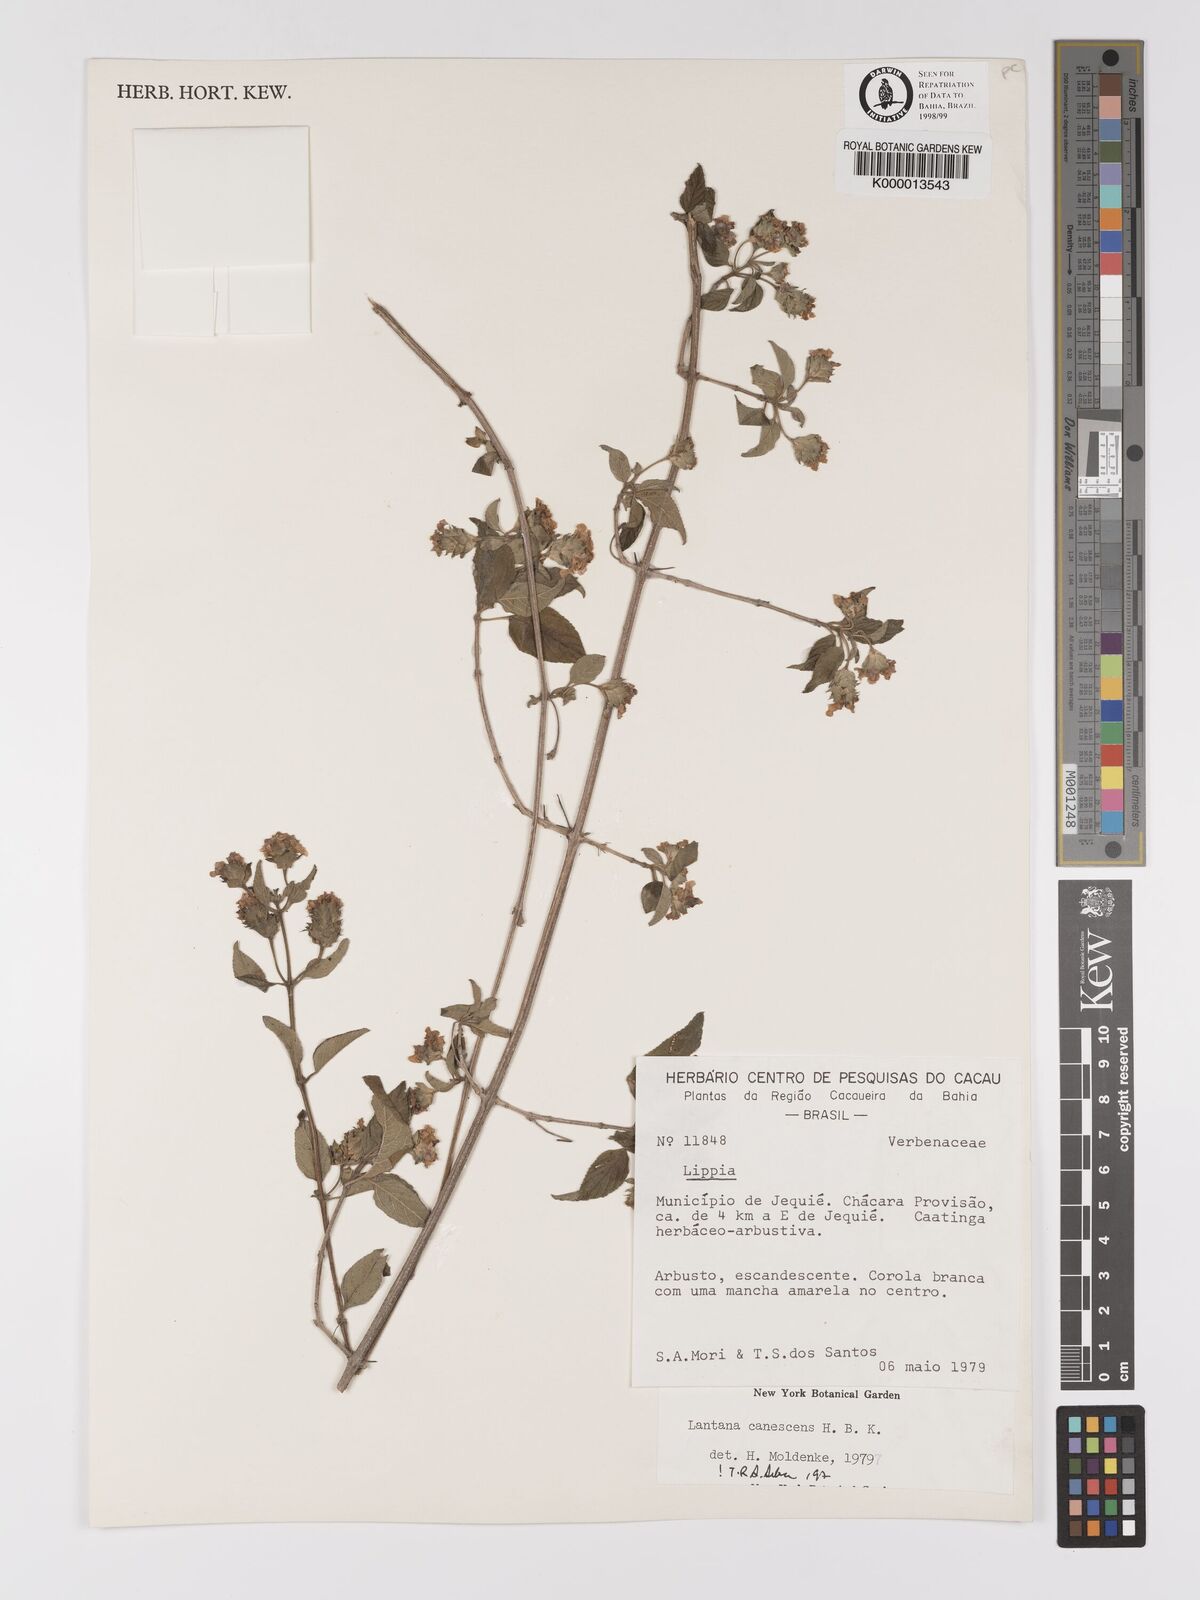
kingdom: Plantae
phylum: Tracheophyta
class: Magnoliopsida
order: Lamiales
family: Verbenaceae
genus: Lantana
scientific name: Lantana canescens
